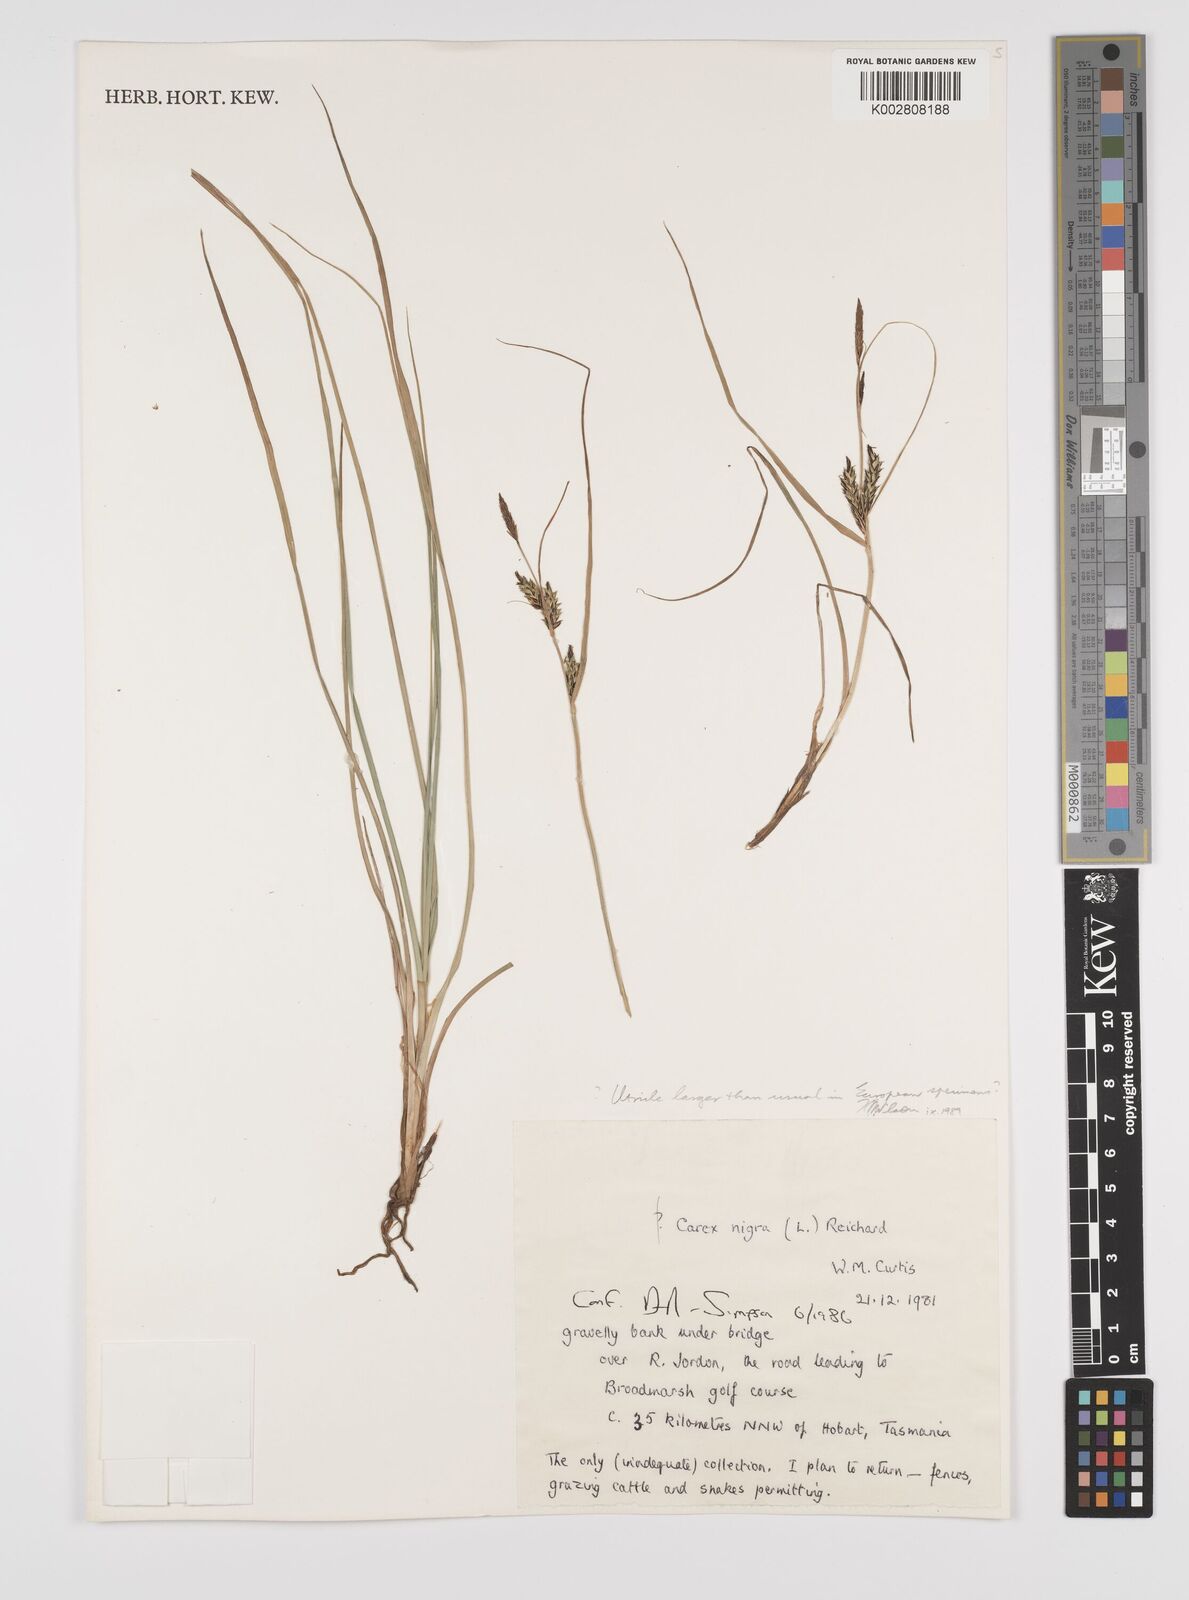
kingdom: Plantae
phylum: Tracheophyta
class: Liliopsida
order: Poales
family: Cyperaceae
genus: Carex
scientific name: Carex nigra
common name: Common sedge
